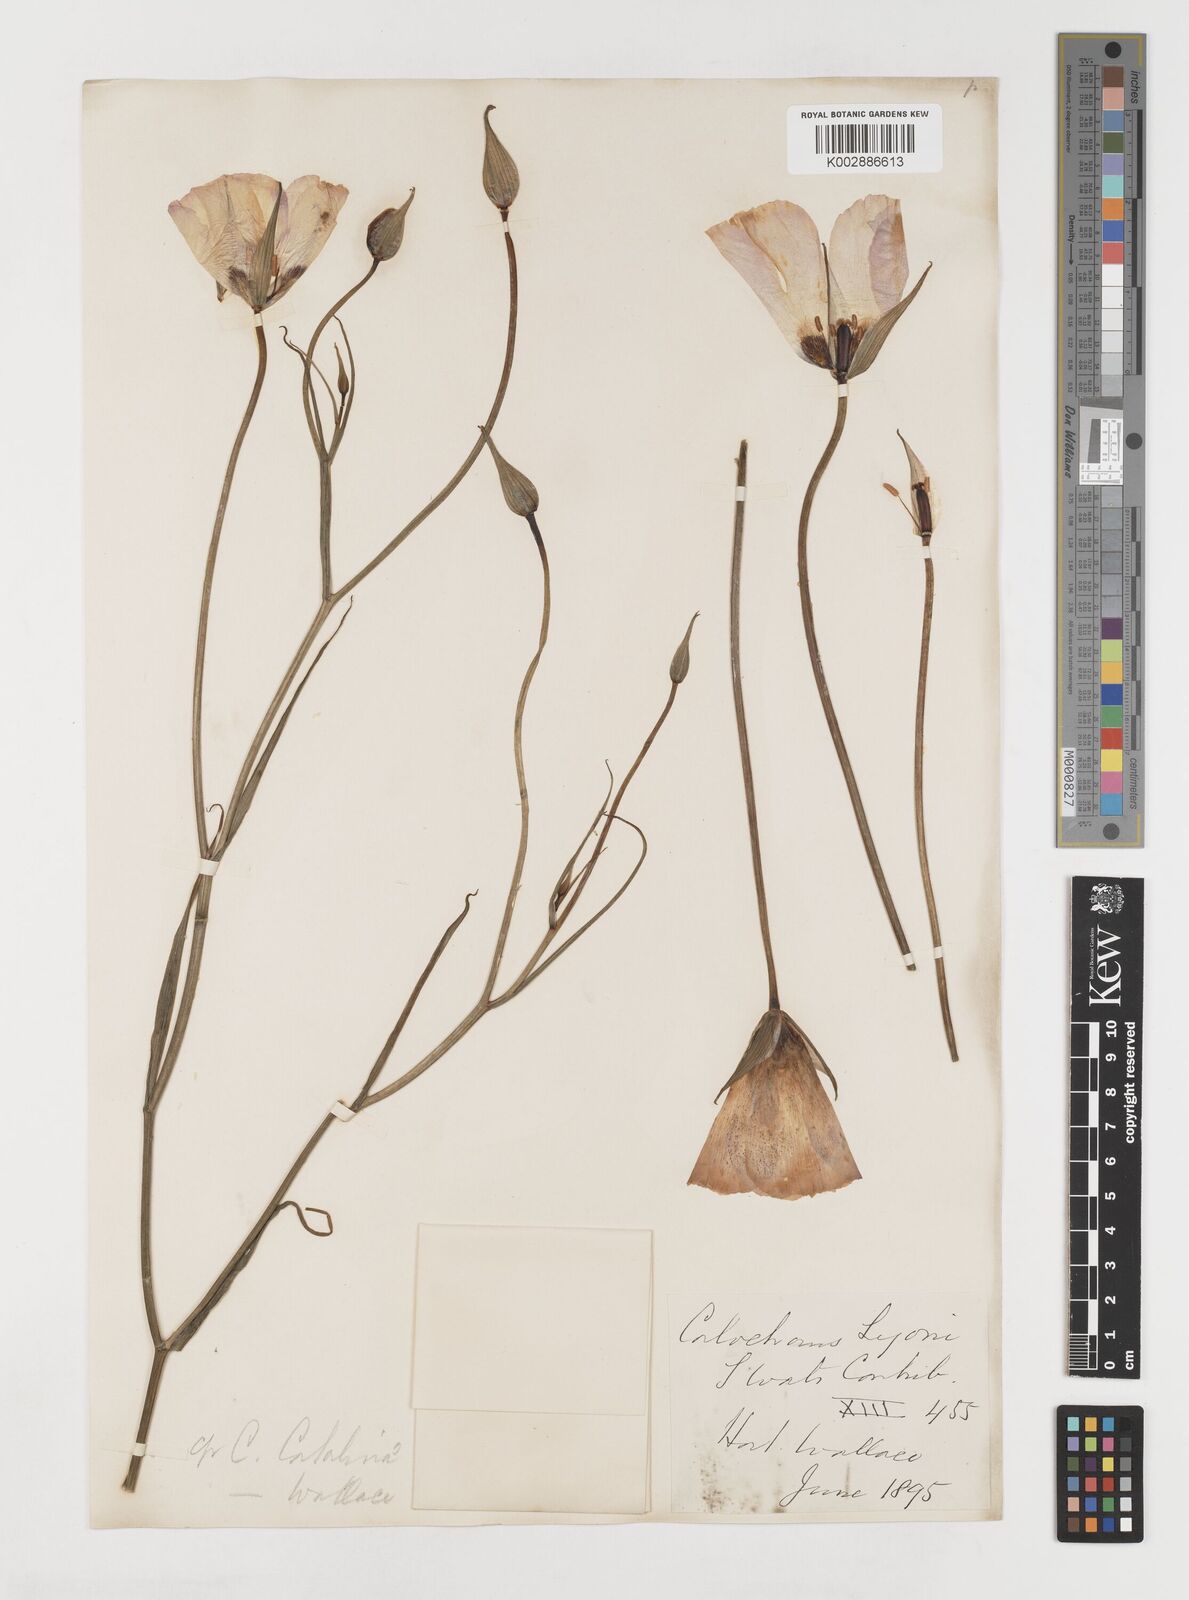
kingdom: Plantae
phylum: Tracheophyta
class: Liliopsida
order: Liliales
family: Liliaceae
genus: Calochortus
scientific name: Calochortus catalinae
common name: Catalina mariposa-lily
